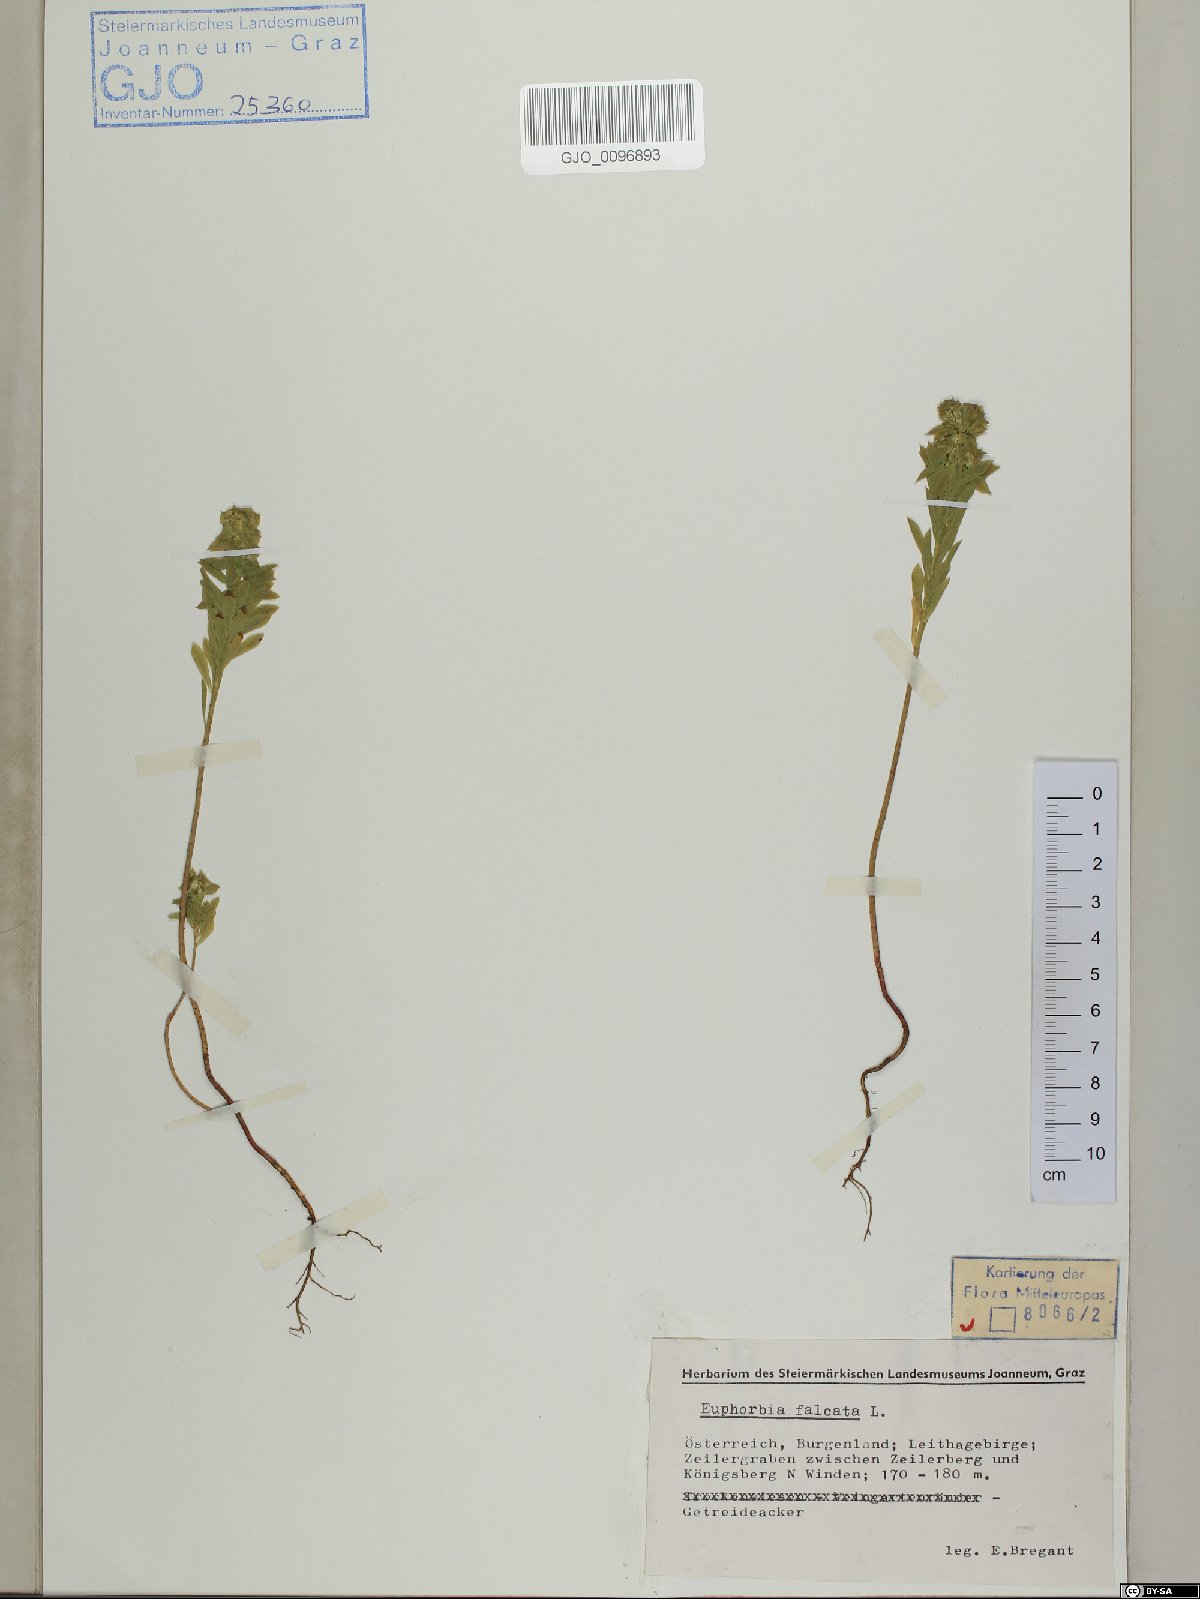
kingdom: Plantae
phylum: Tracheophyta
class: Magnoliopsida
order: Malpighiales
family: Euphorbiaceae
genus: Euphorbia
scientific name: Euphorbia falcata
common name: Sickle spurge
